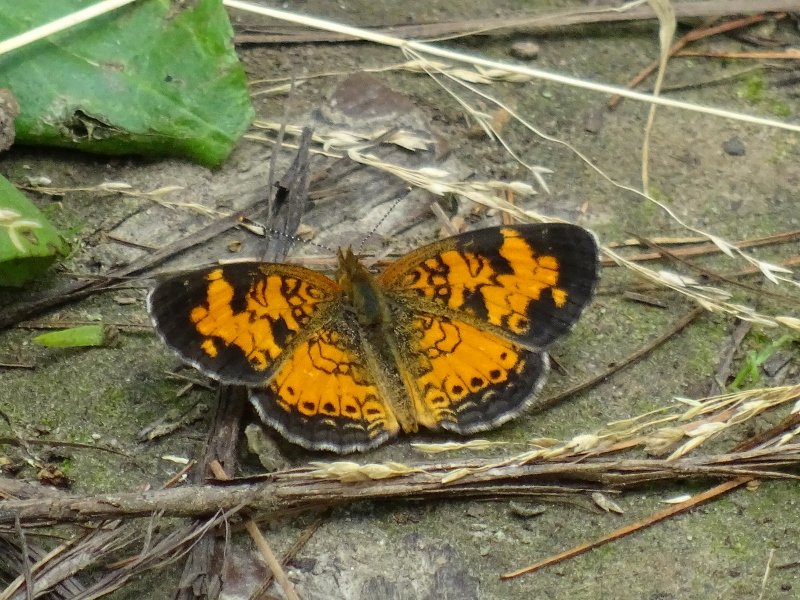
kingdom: Animalia
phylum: Arthropoda
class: Insecta
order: Lepidoptera
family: Nymphalidae
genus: Phyciodes
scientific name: Phyciodes tharos
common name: Northern Crescent
